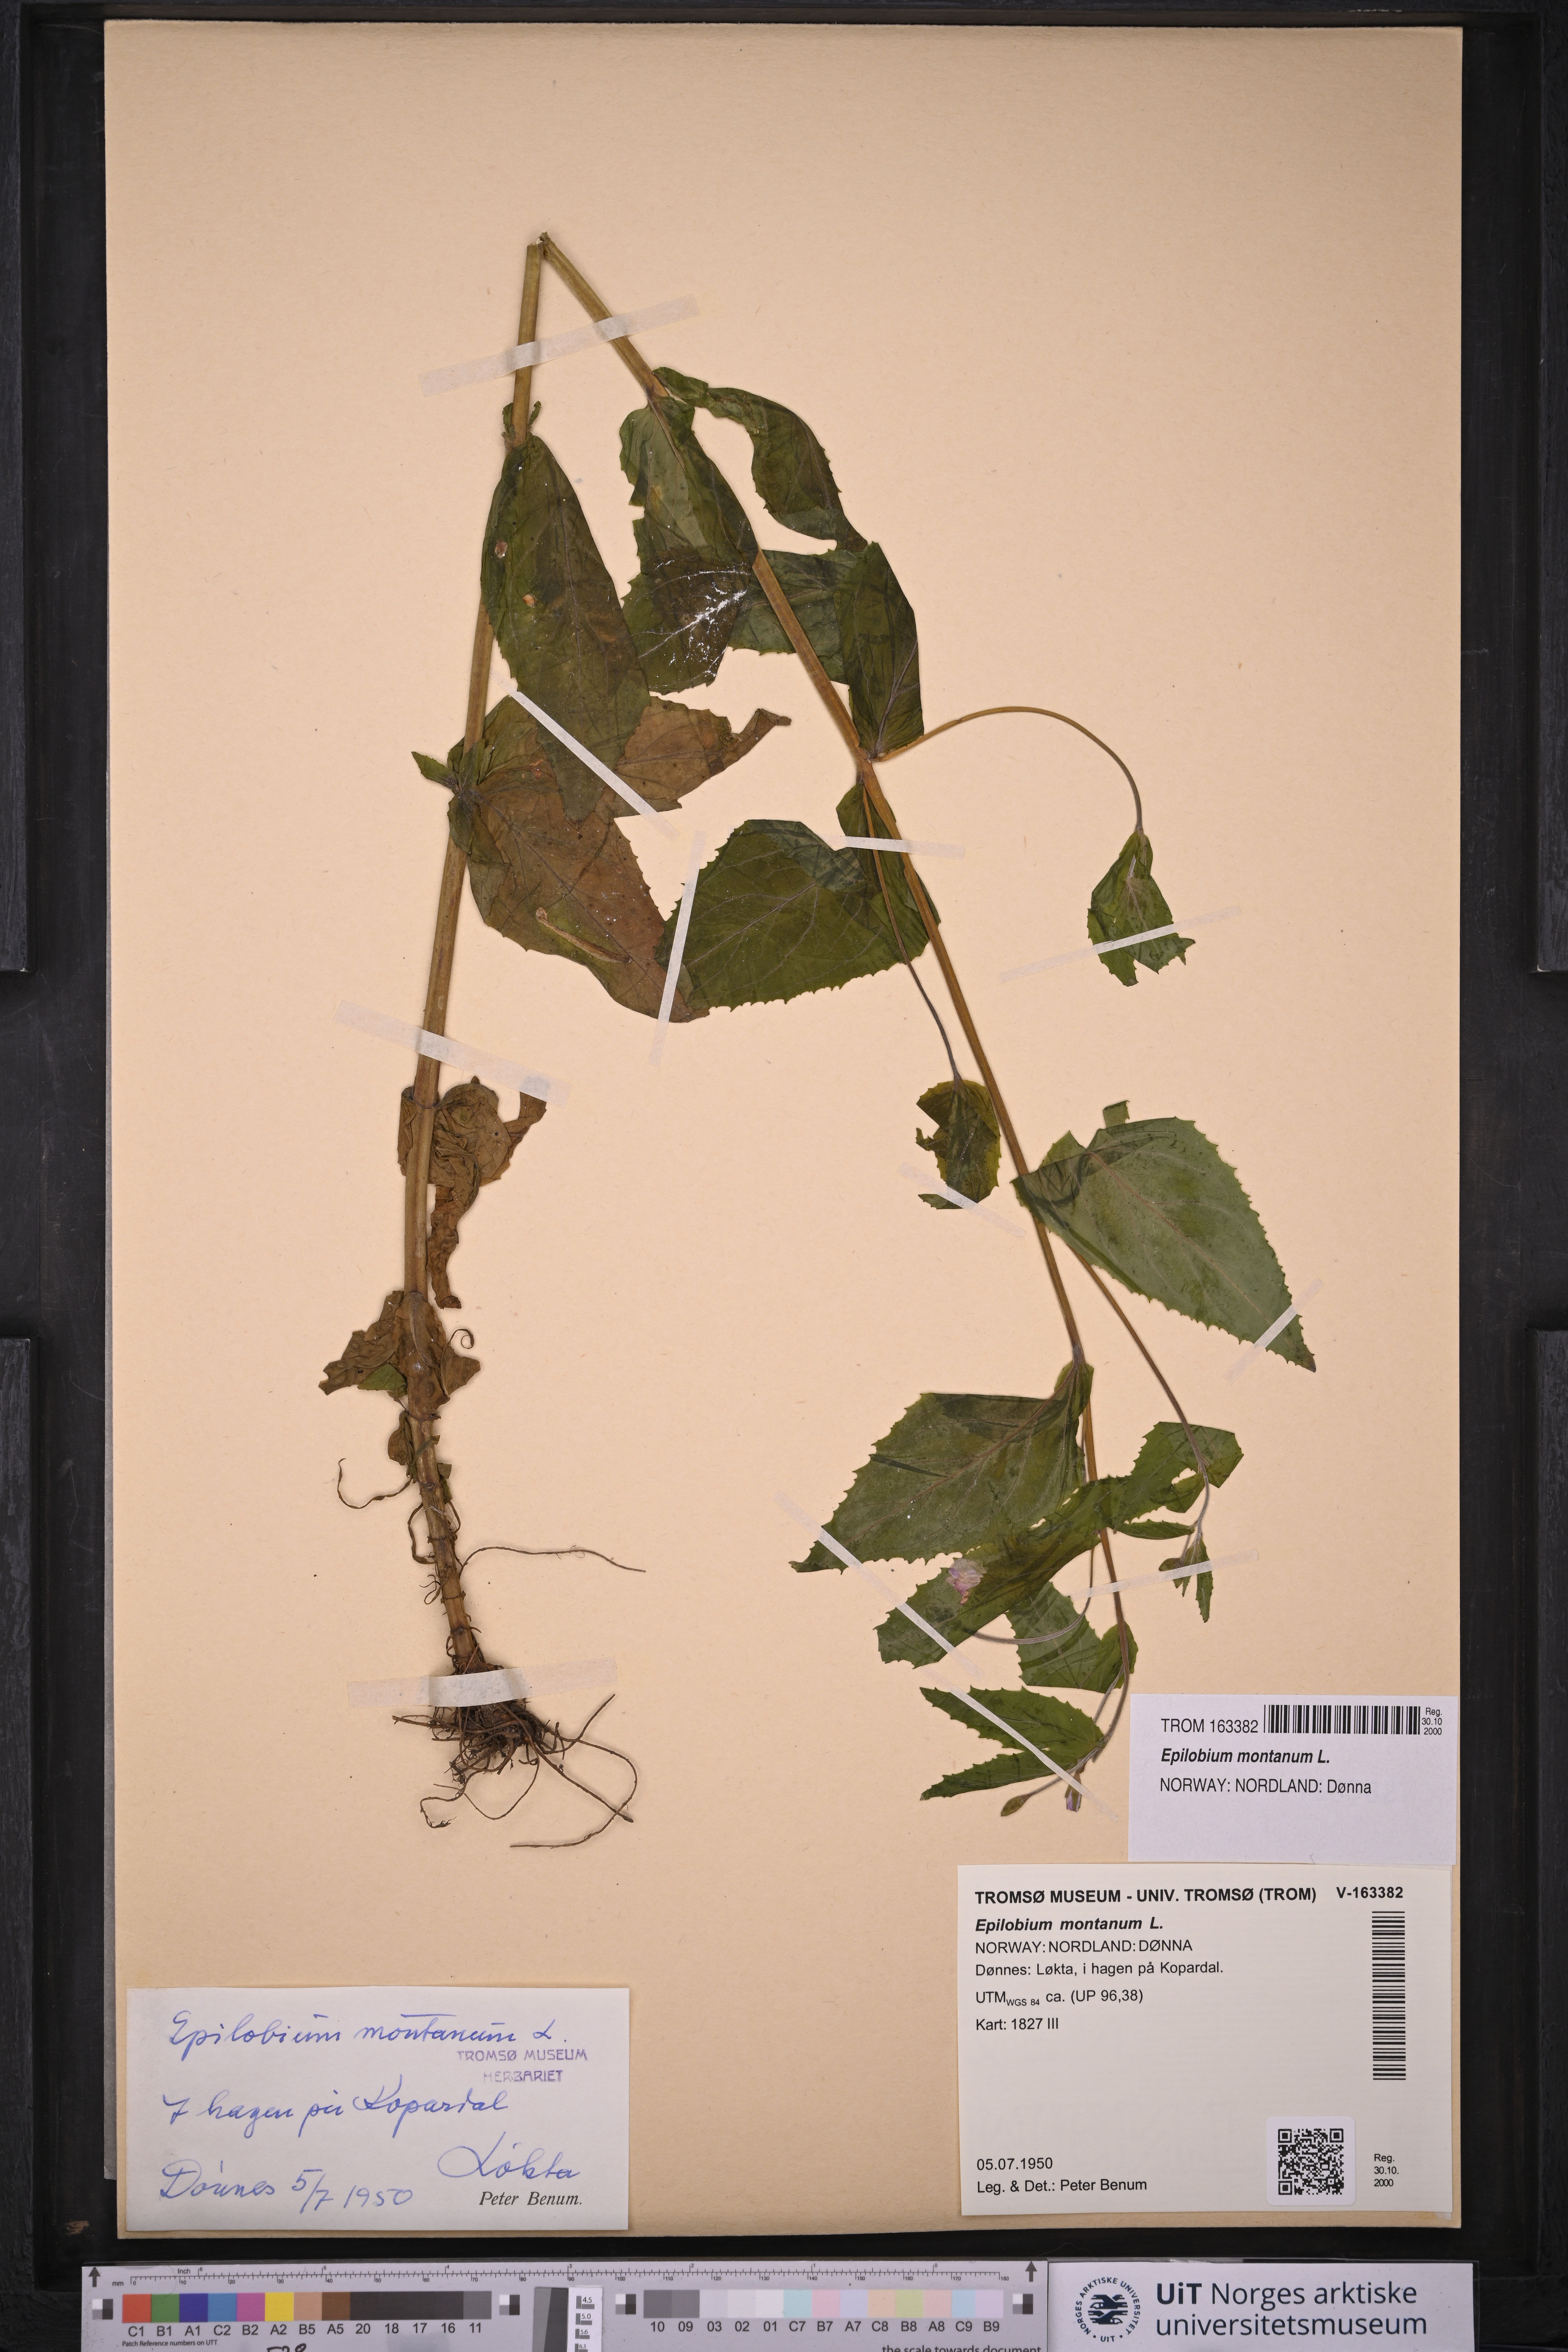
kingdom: Plantae
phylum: Tracheophyta
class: Magnoliopsida
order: Myrtales
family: Onagraceae
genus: Epilobium
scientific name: Epilobium montanum
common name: Broad-leaved willowherb
